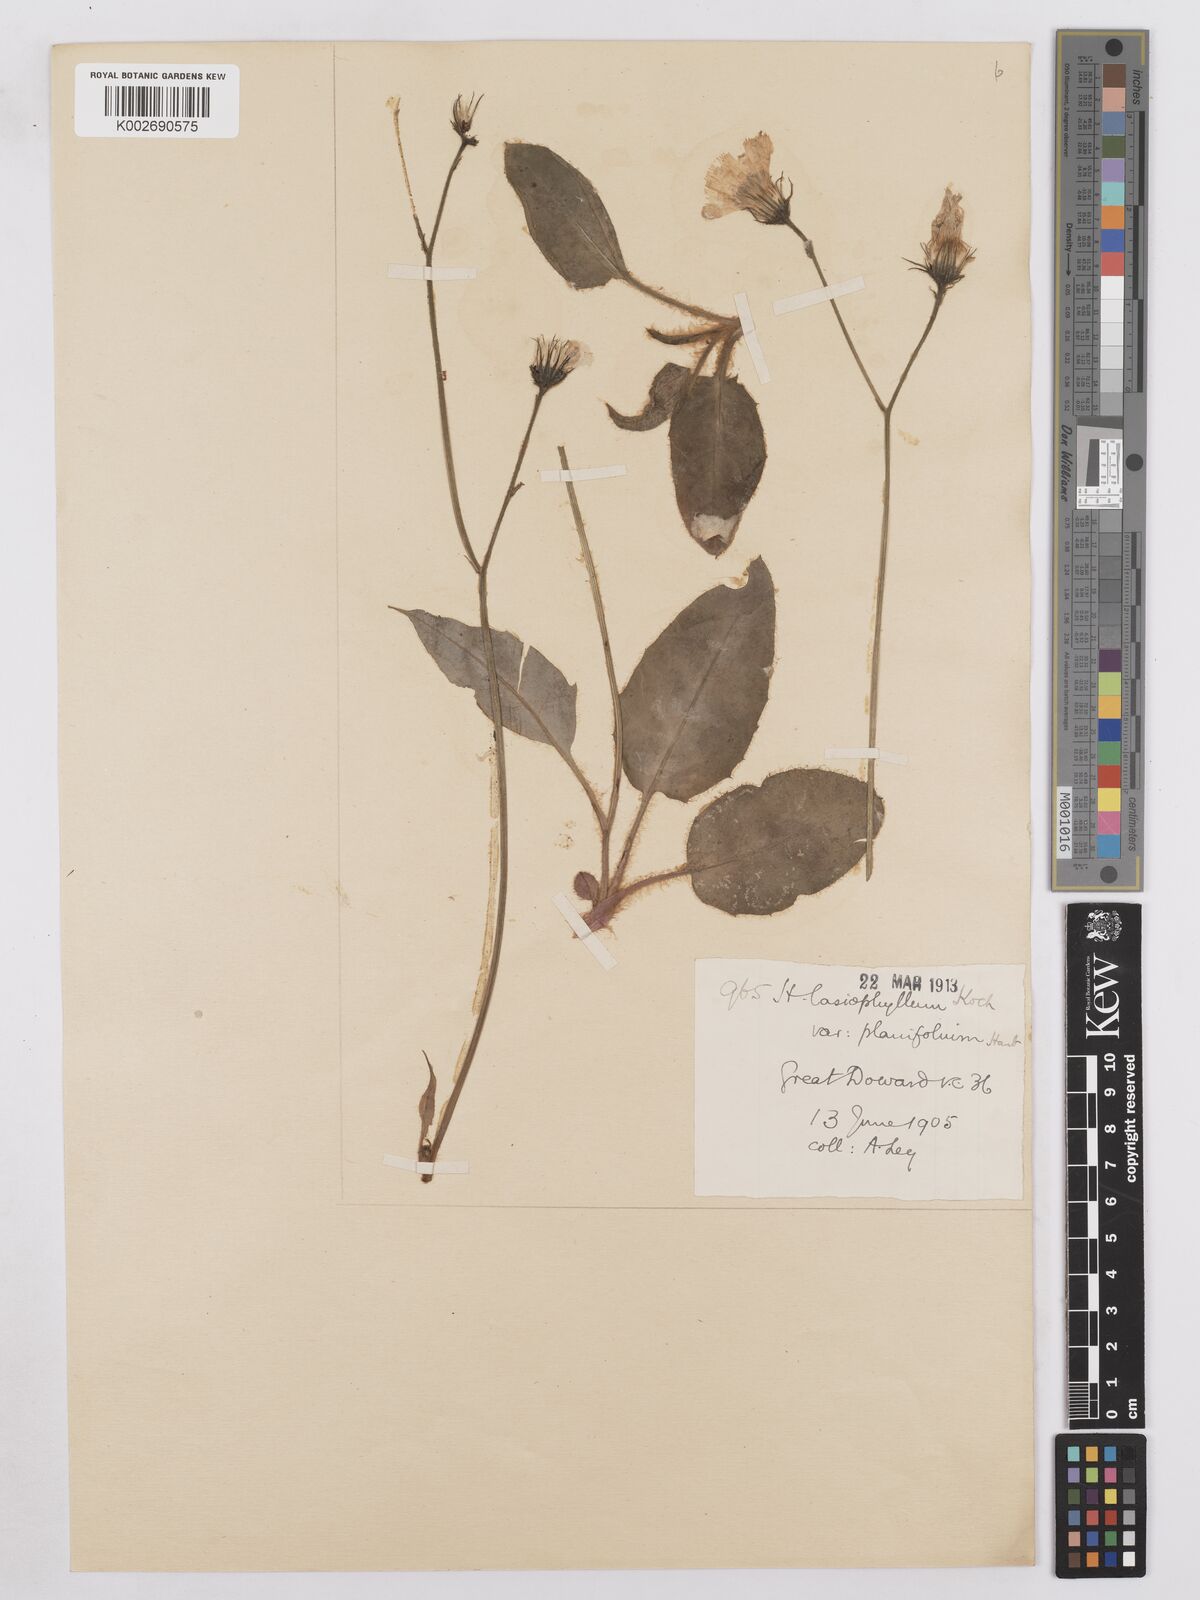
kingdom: Plantae
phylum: Tracheophyta
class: Magnoliopsida
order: Asterales
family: Asteraceae
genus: Hieracium
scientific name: Hieracium subplanifolium
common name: Flat-leaved hawkweed
